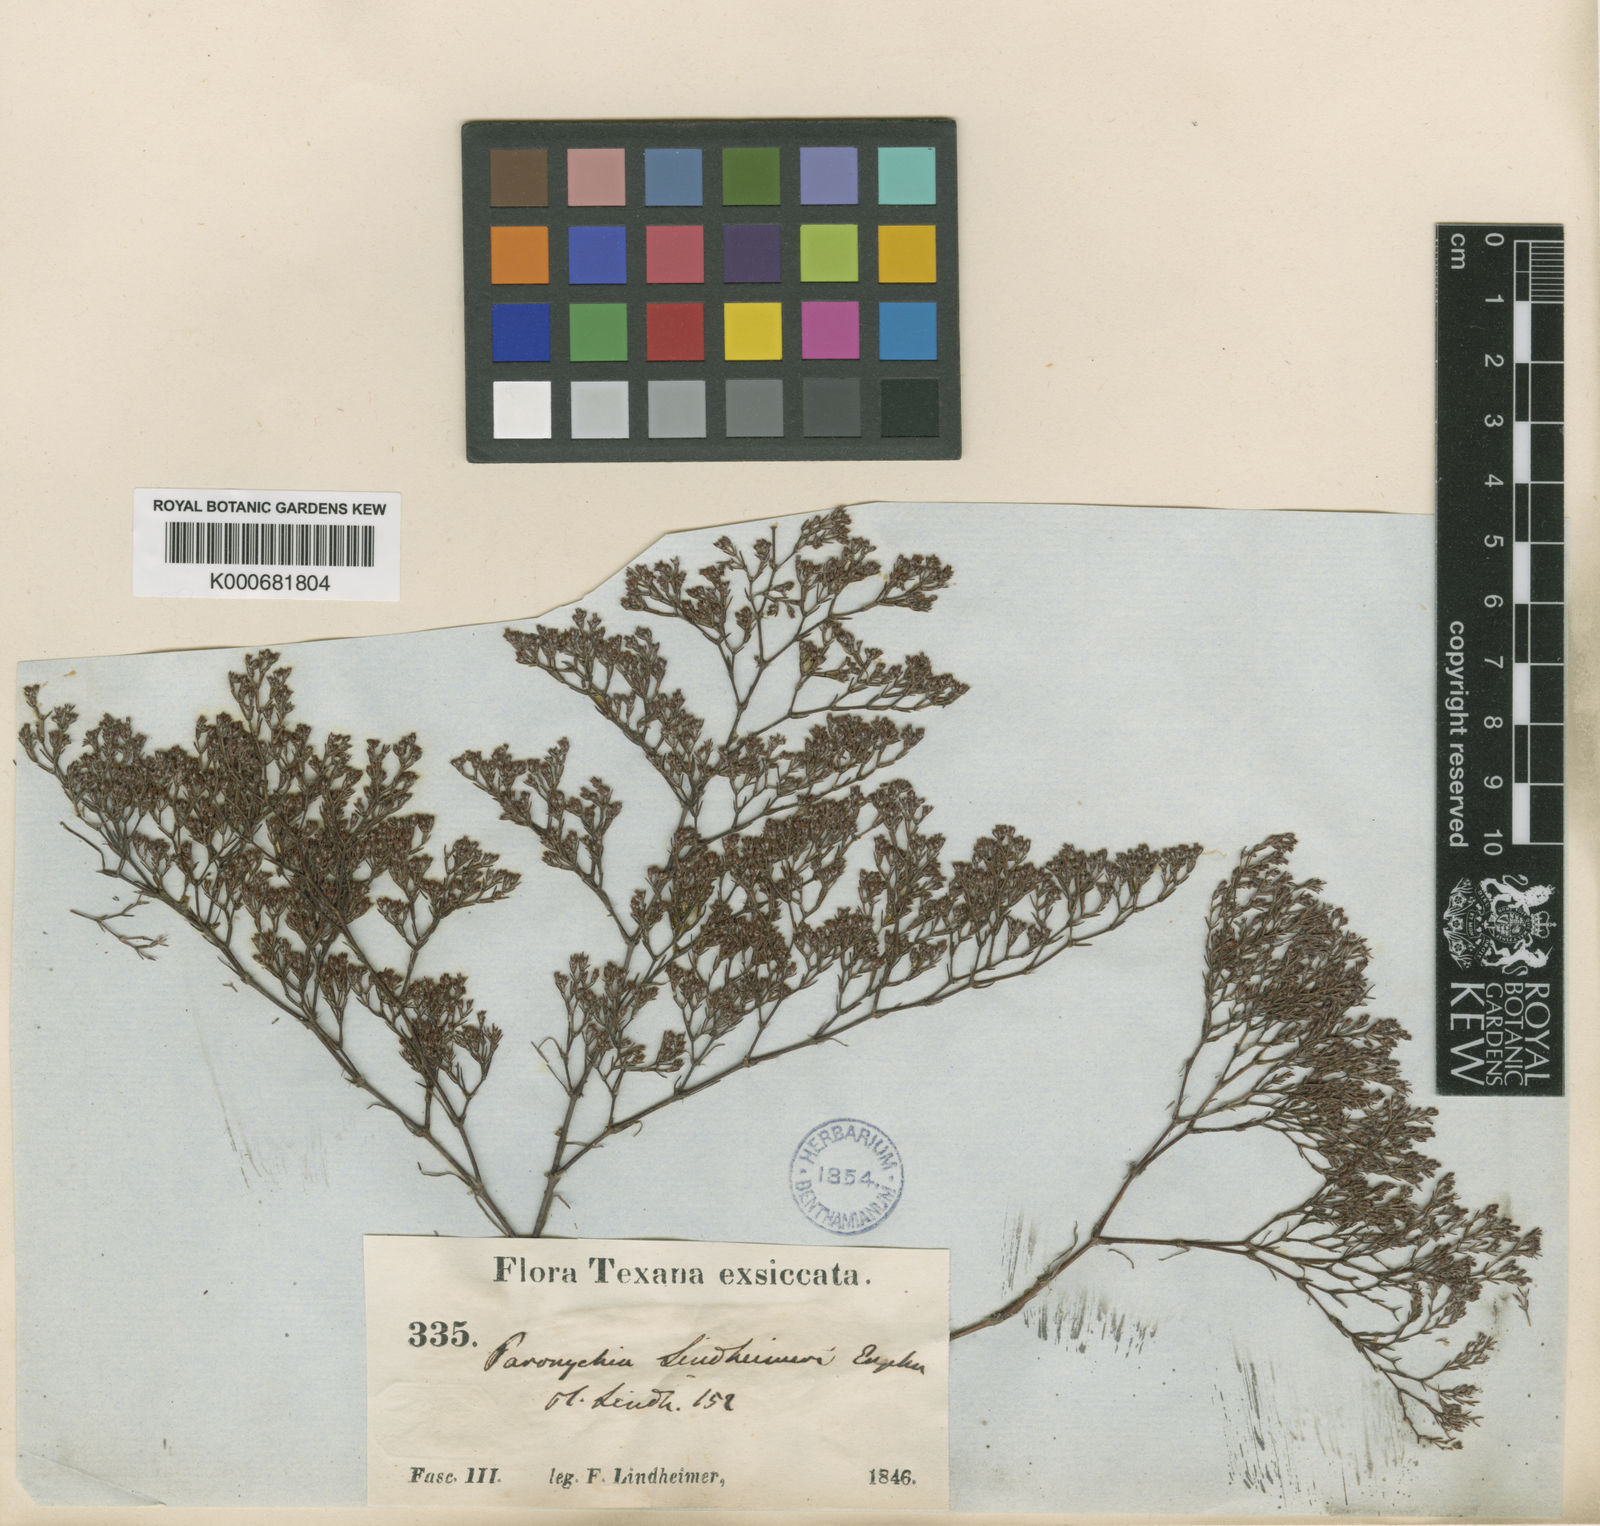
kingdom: Plantae
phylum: Tracheophyta
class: Magnoliopsida
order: Caryophyllales
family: Caryophyllaceae
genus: Paronychia
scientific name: Paronychia lindheimeri
